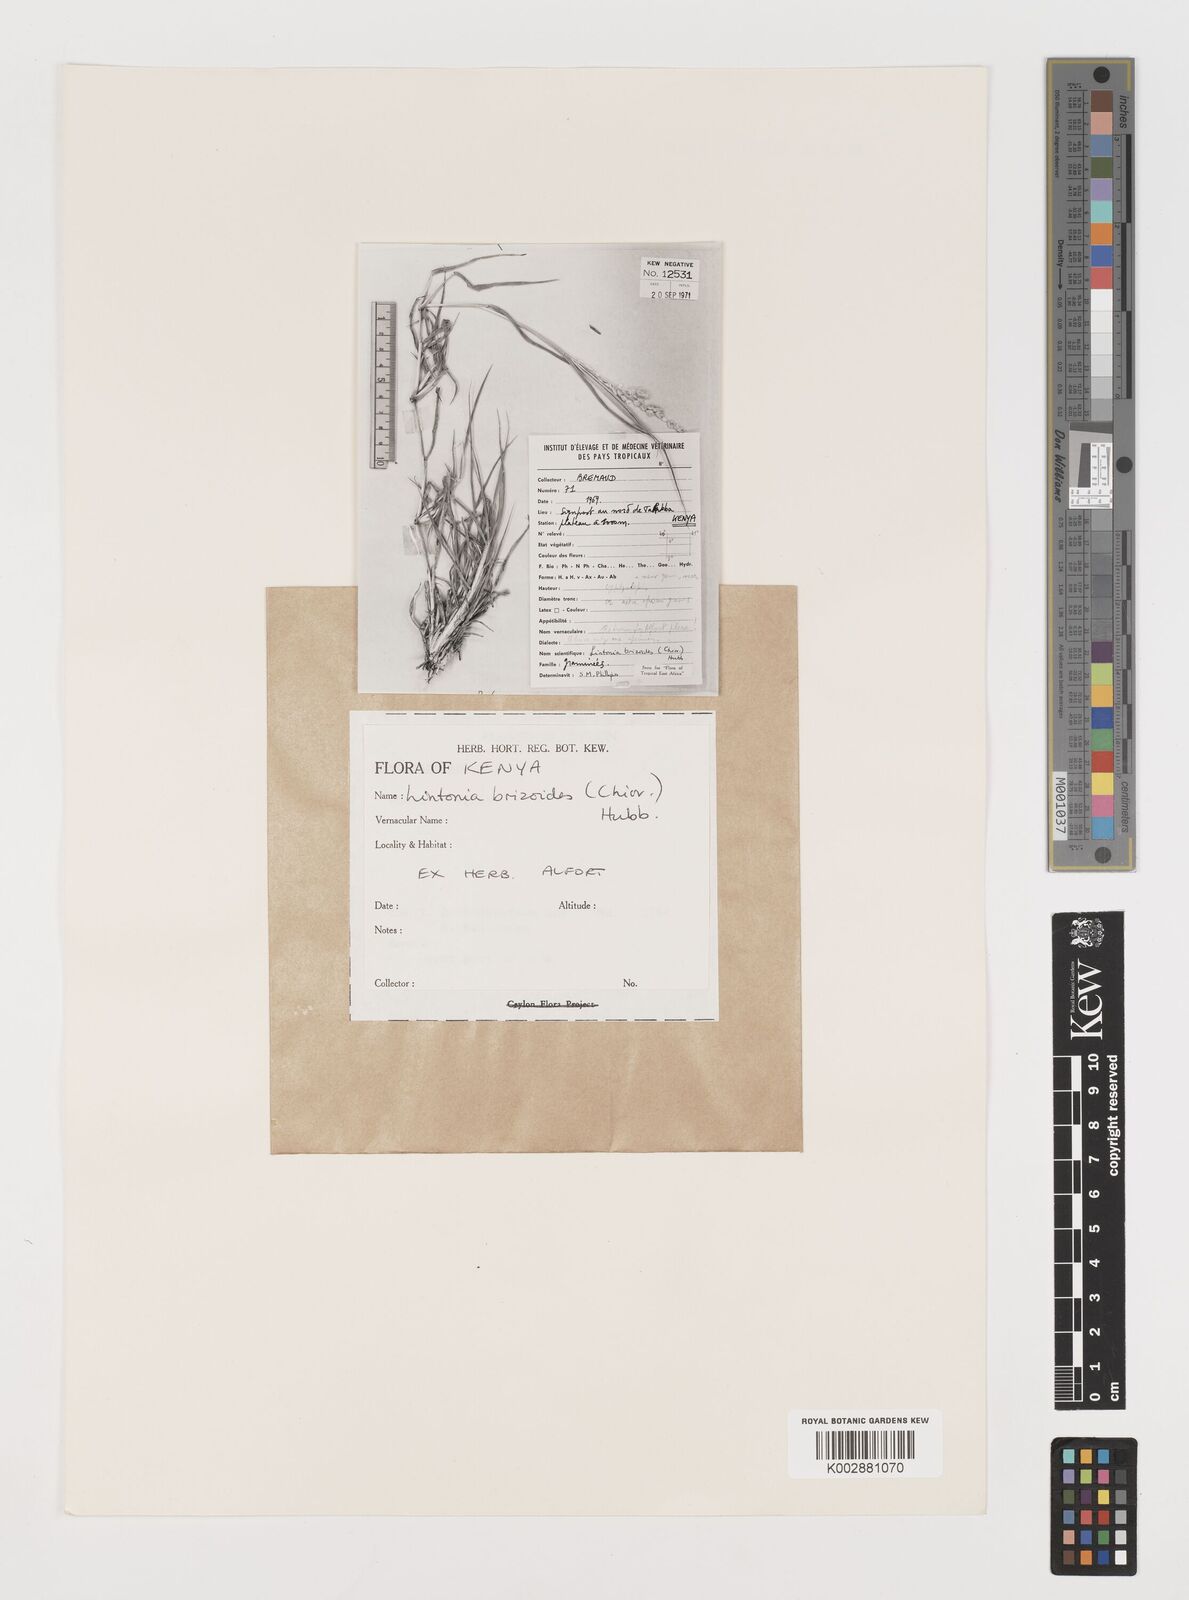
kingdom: Plantae
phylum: Tracheophyta
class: Liliopsida
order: Poales
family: Poaceae
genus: Chloris
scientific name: Chloris Lintonia brizoides
